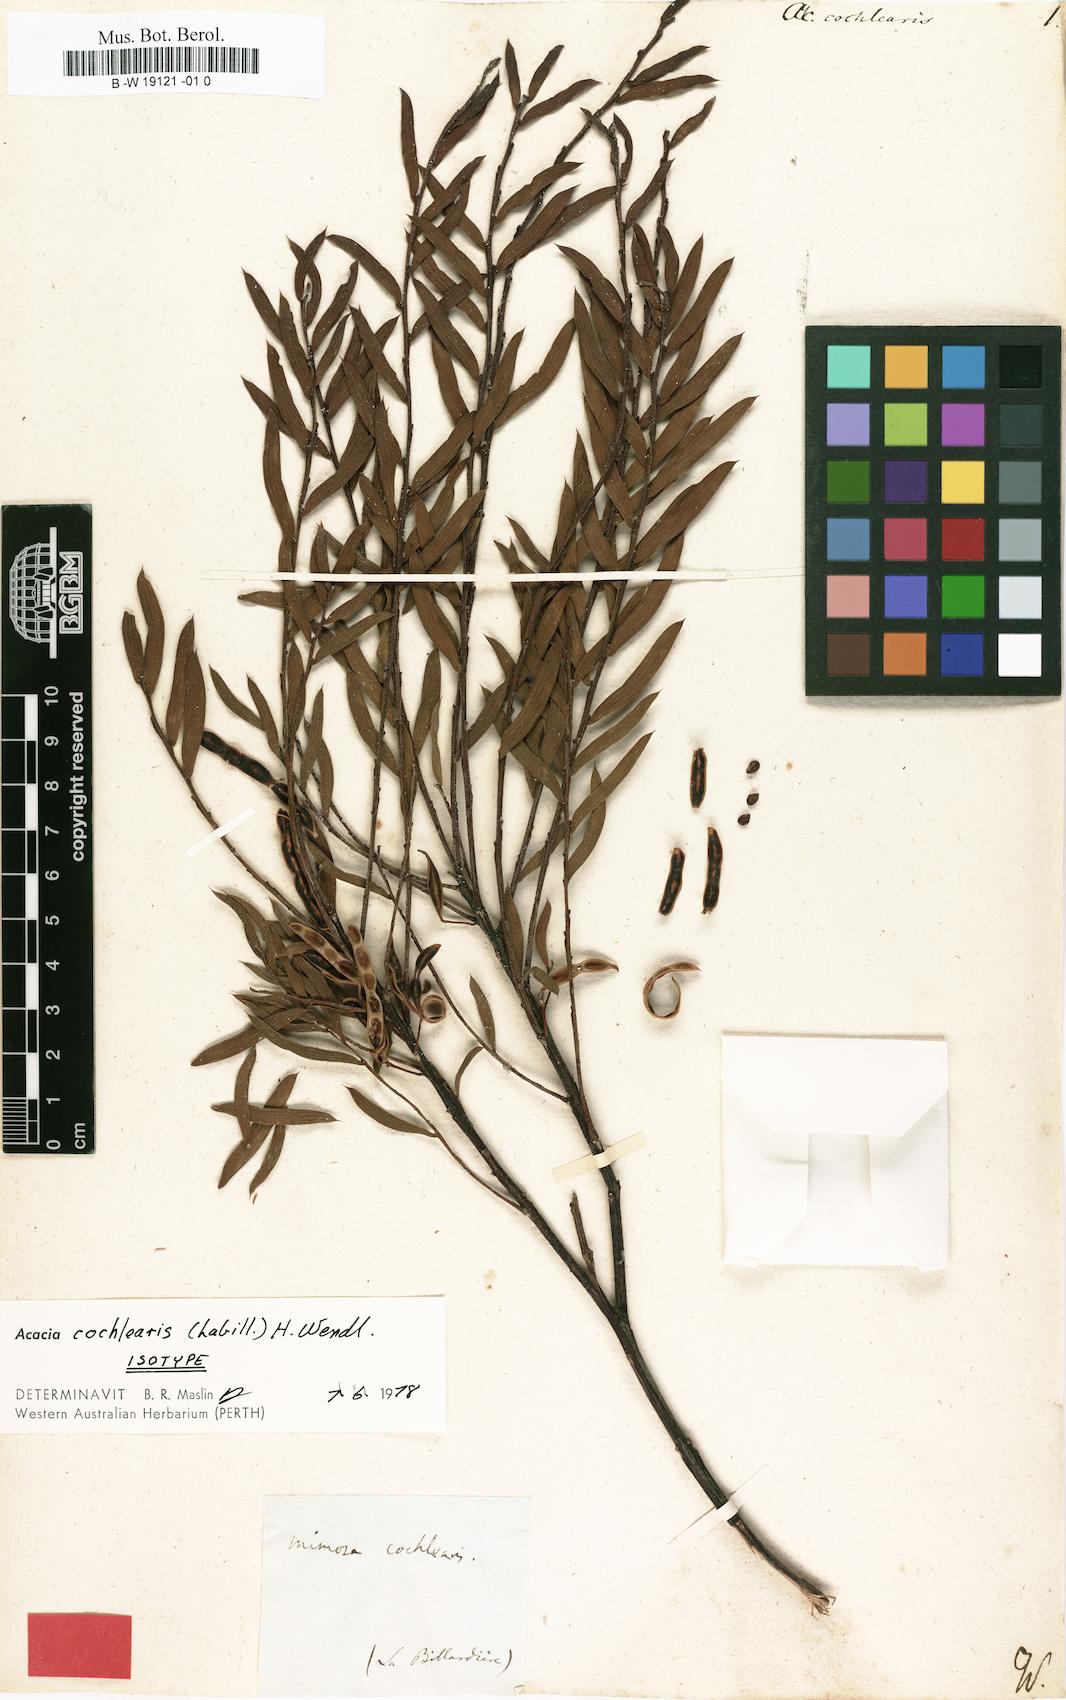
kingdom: Plantae
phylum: Tracheophyta
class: Magnoliopsida
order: Fabales
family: Fabaceae
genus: Acacia
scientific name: Acacia cochlearis
